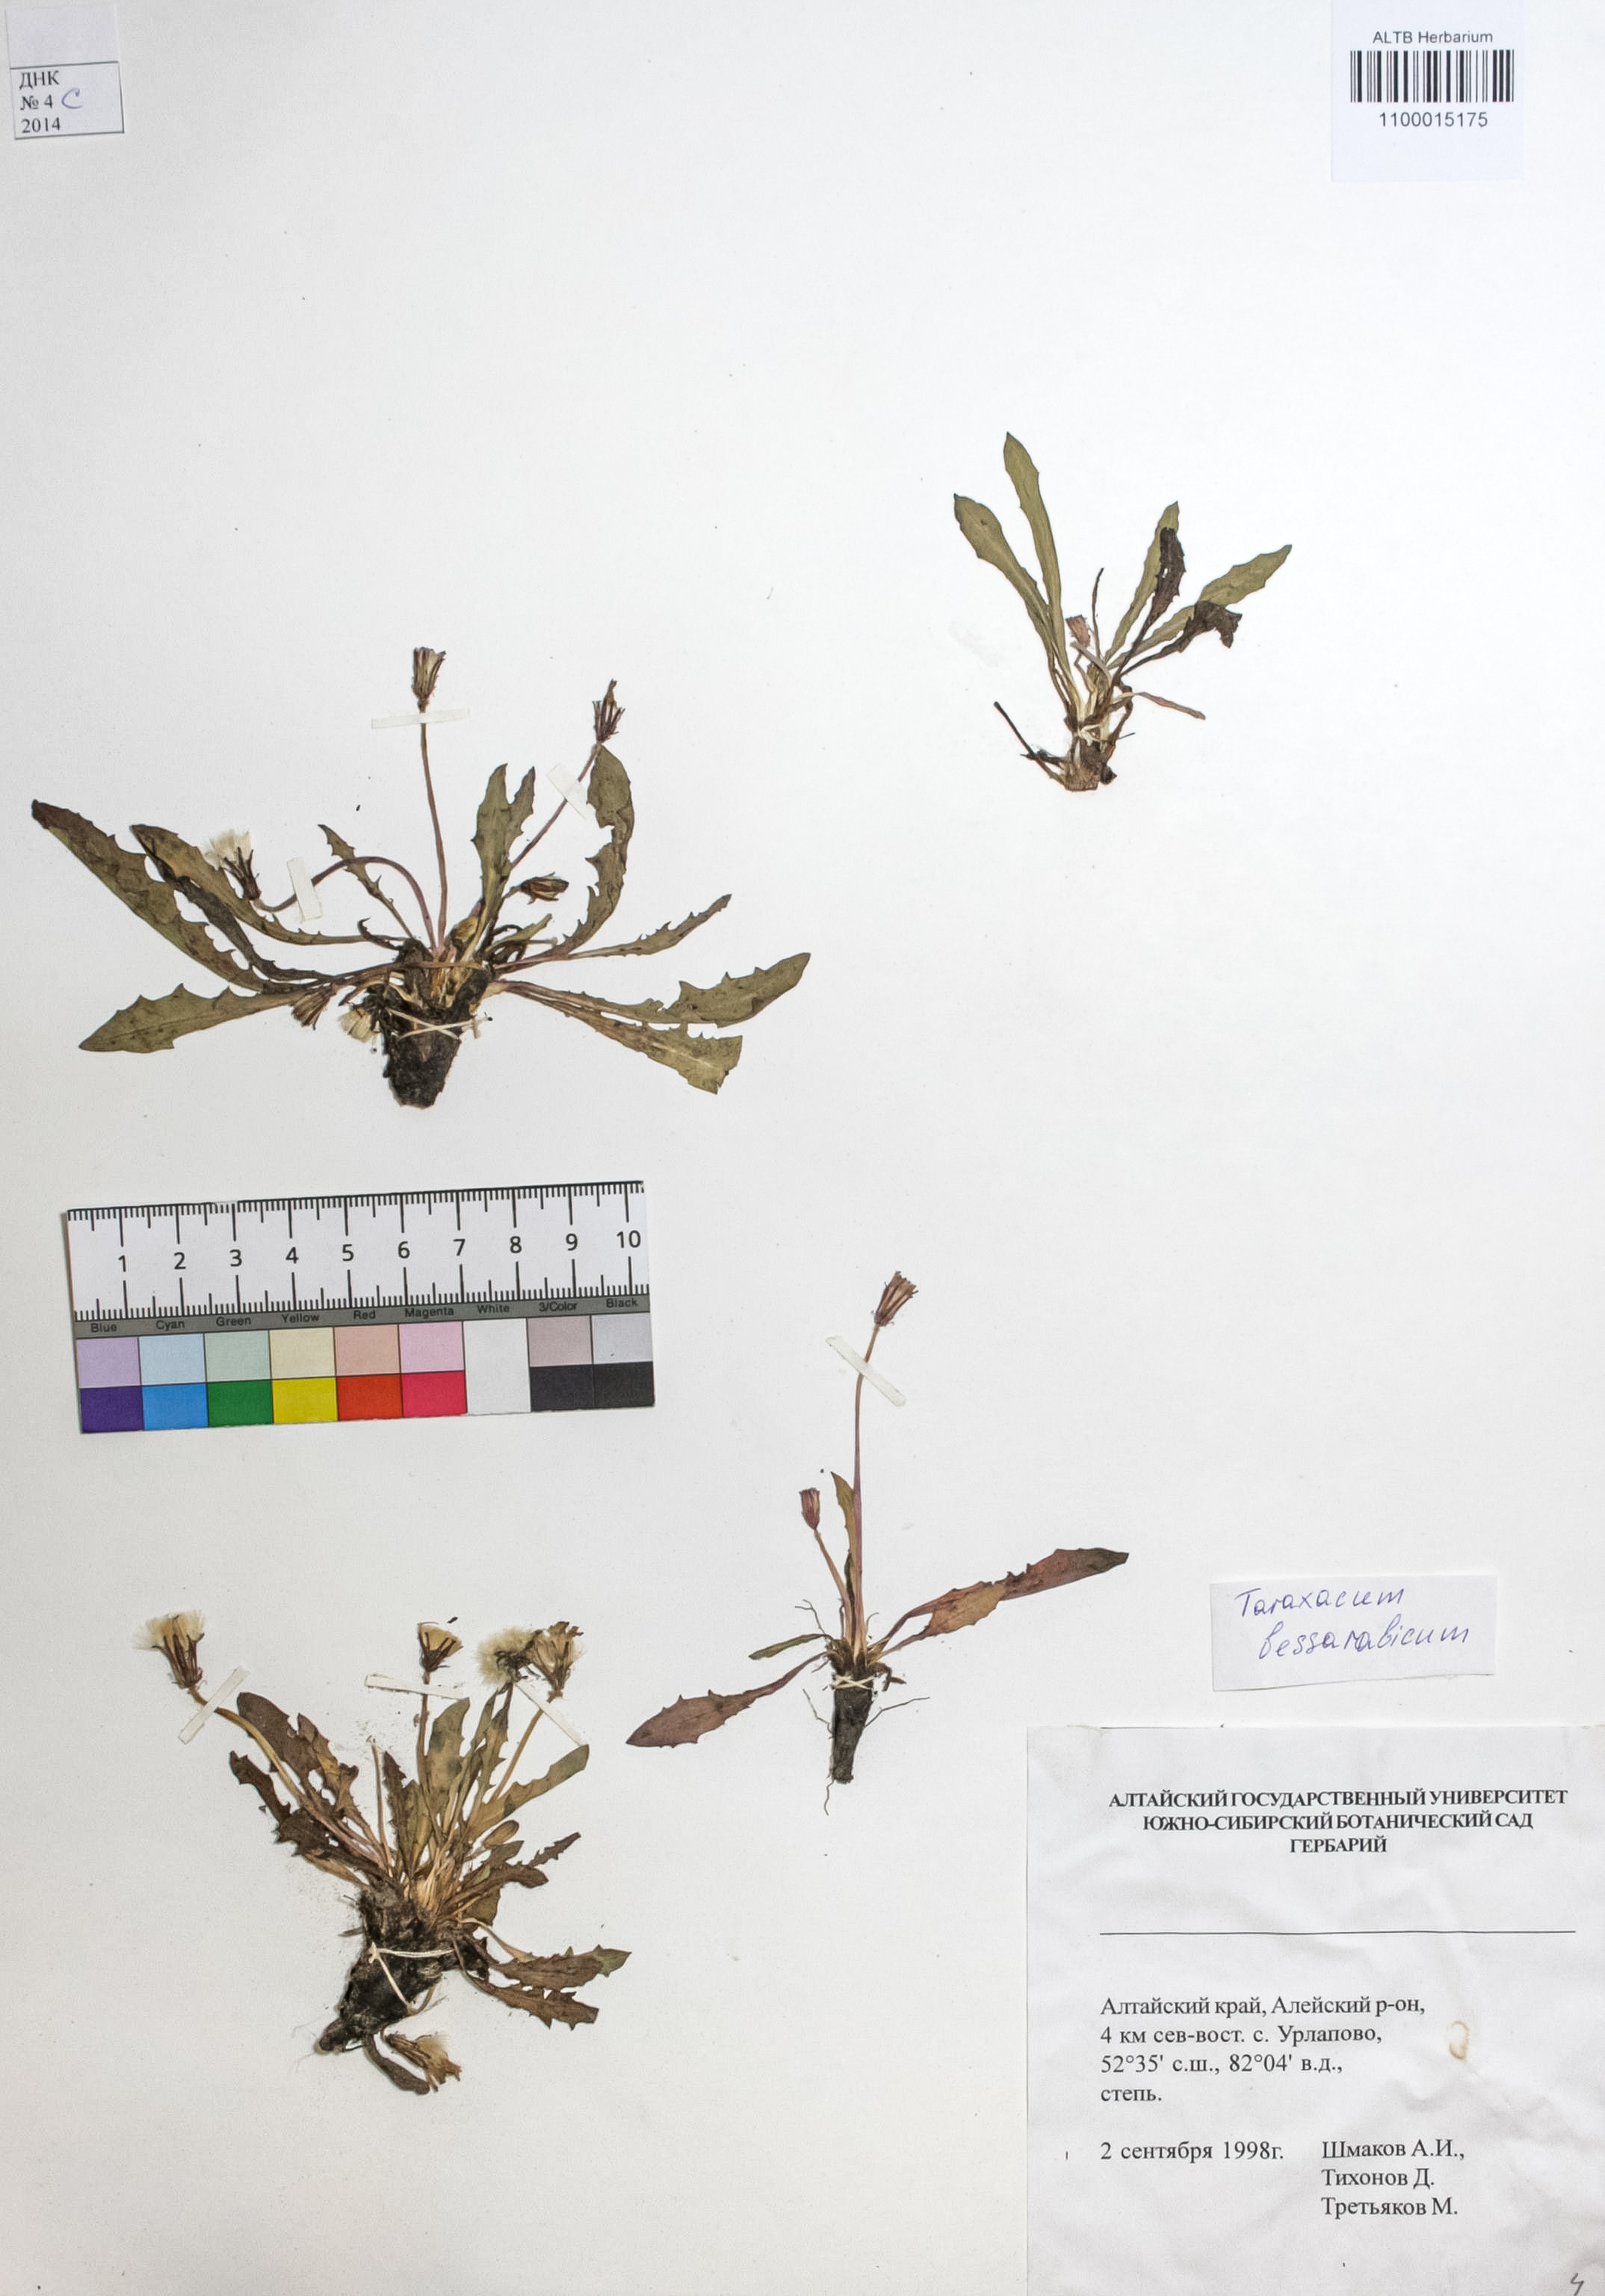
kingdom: Plantae
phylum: Tracheophyta
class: Magnoliopsida
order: Asterales
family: Asteraceae
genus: Taraxacum
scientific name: Taraxacum bessarabicum
